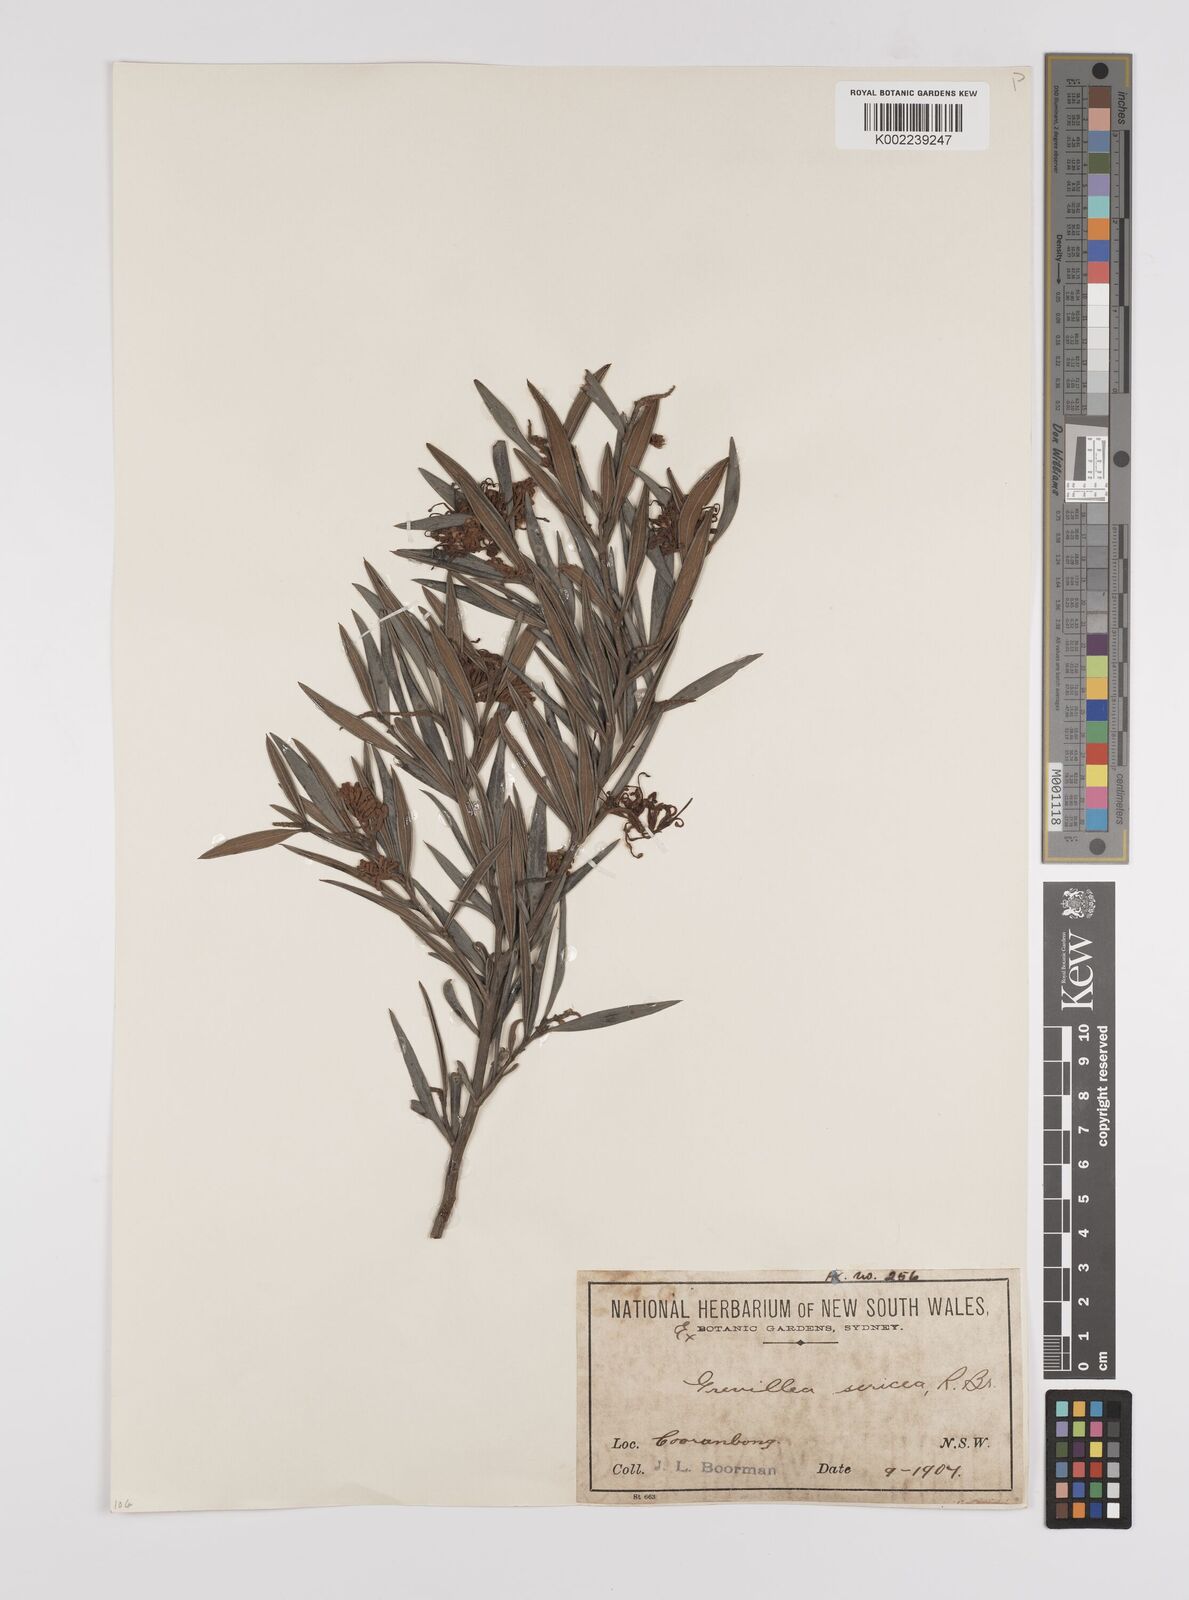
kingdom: Plantae
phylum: Tracheophyta
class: Magnoliopsida
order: Proteales
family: Proteaceae
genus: Grevillea
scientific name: Grevillea sericea
